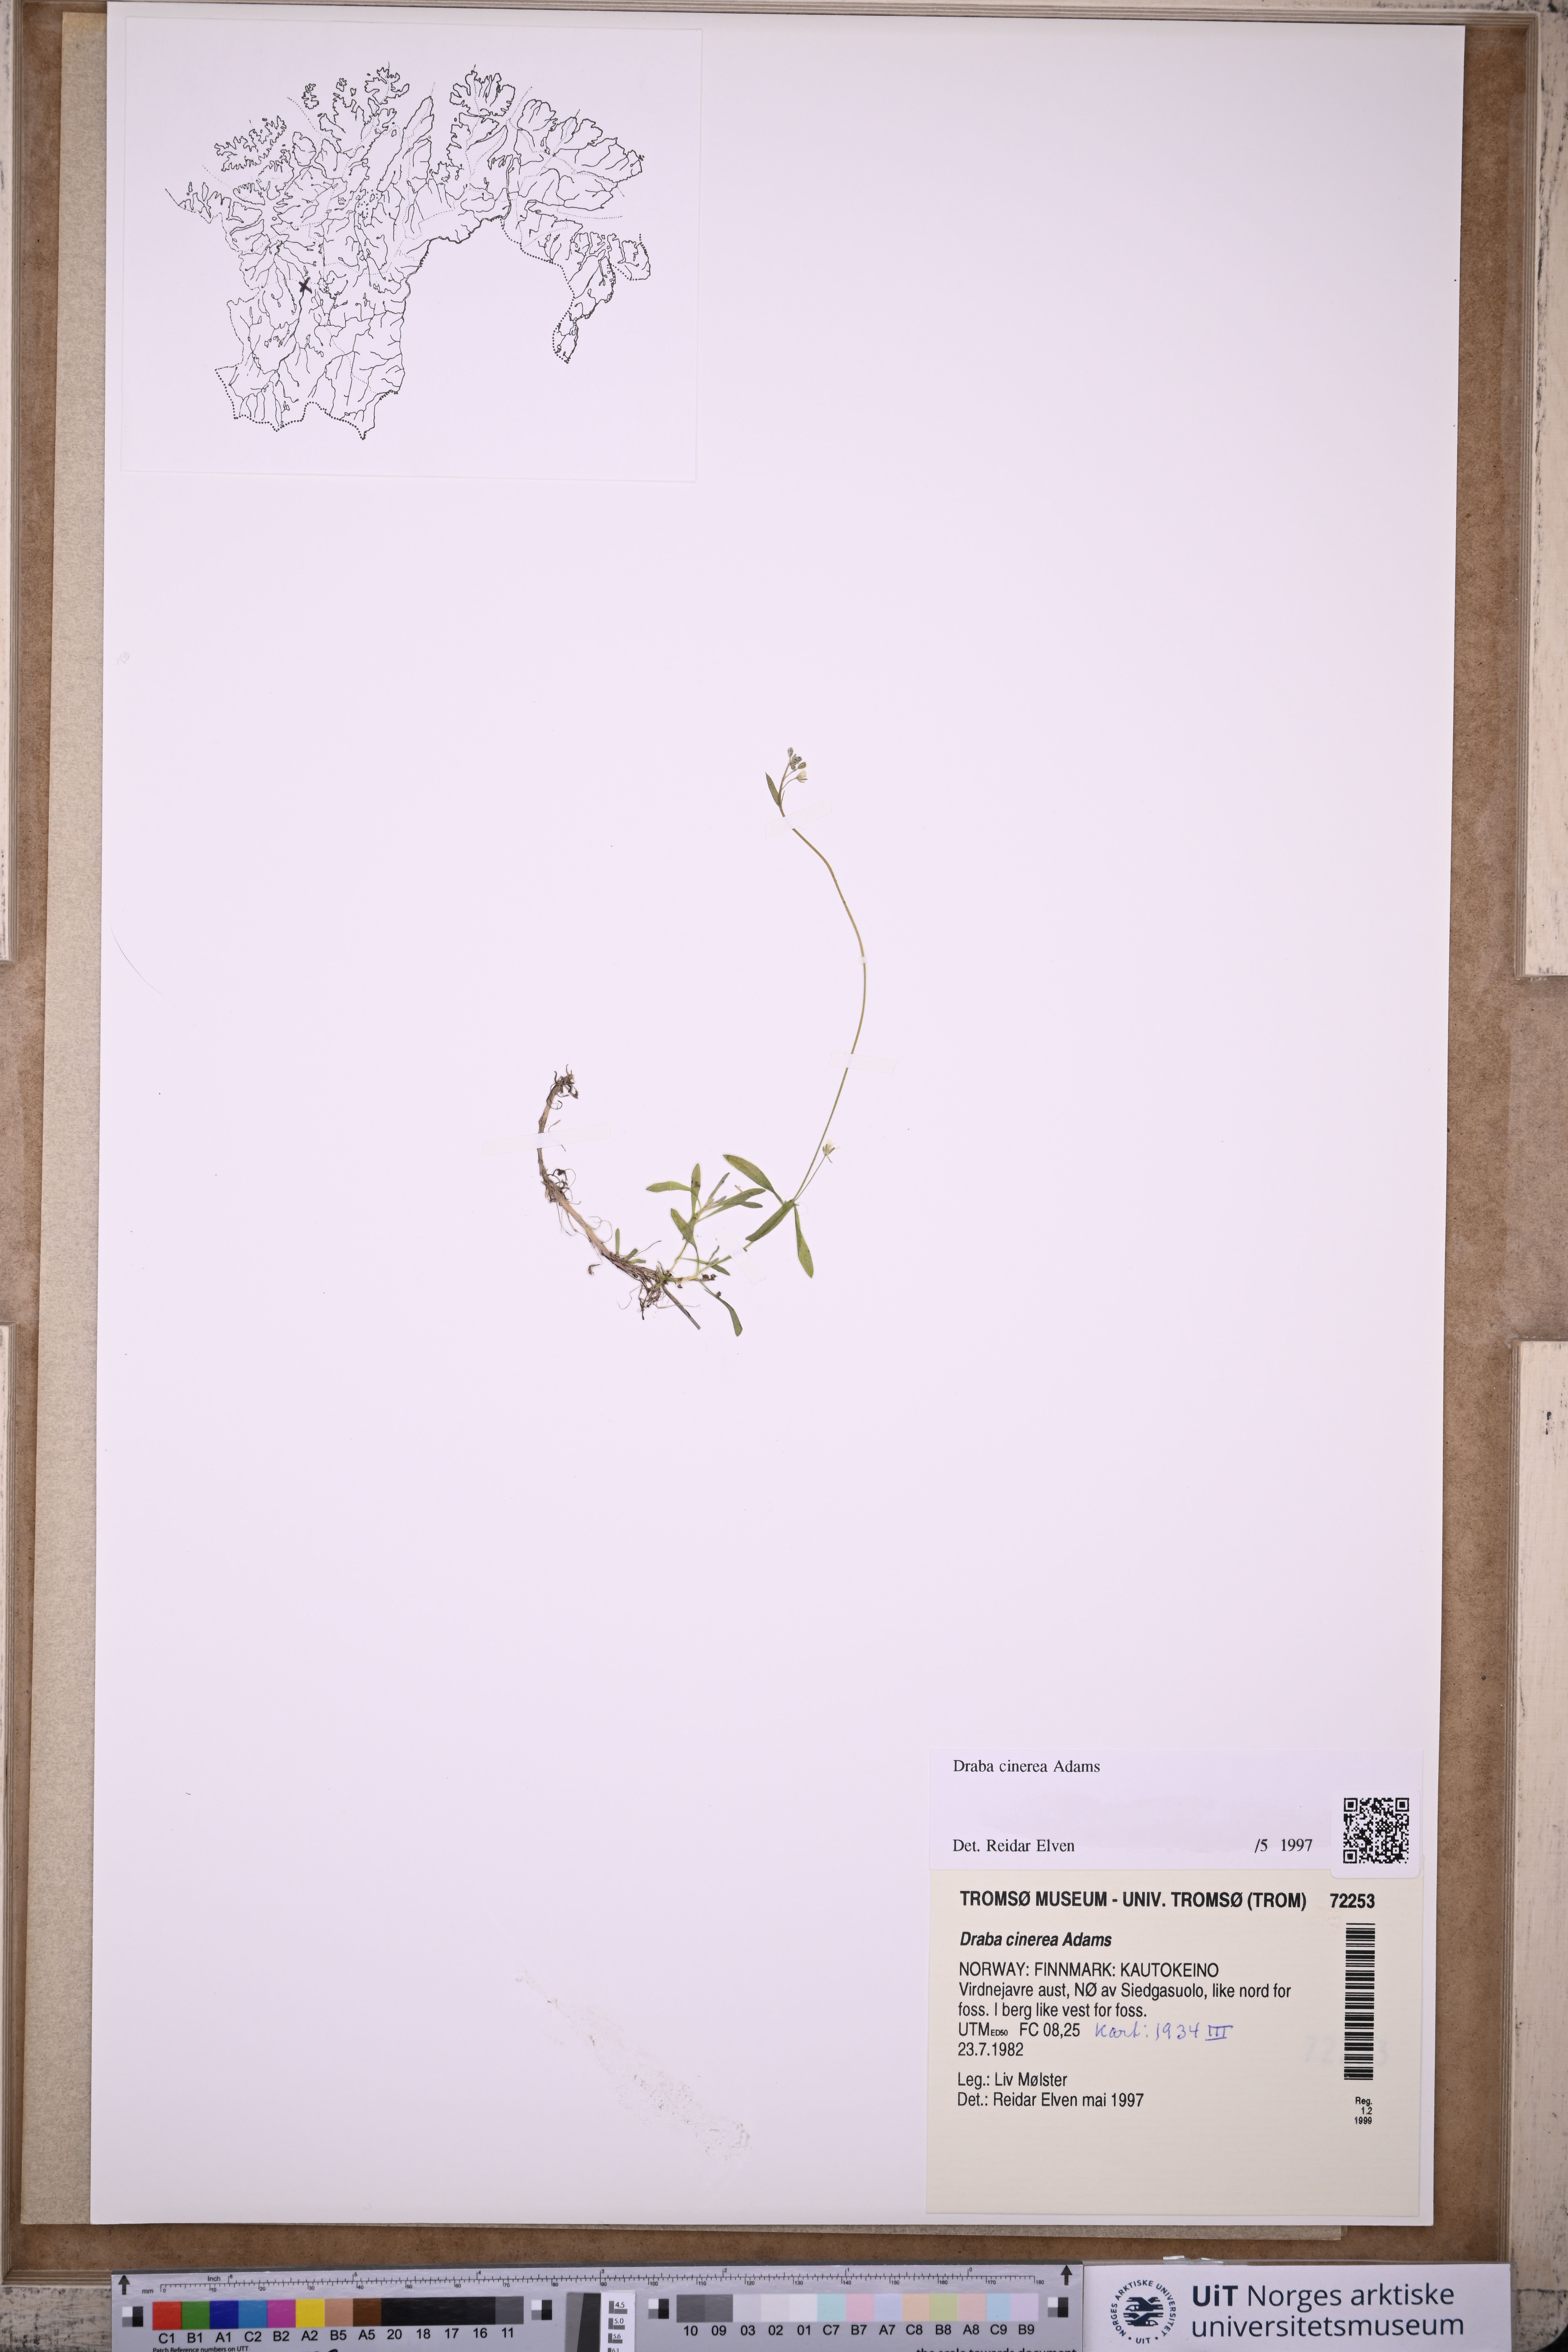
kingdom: Plantae
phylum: Tracheophyta
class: Magnoliopsida
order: Brassicales
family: Brassicaceae
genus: Draba
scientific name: Draba arctica
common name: Arctic draba
